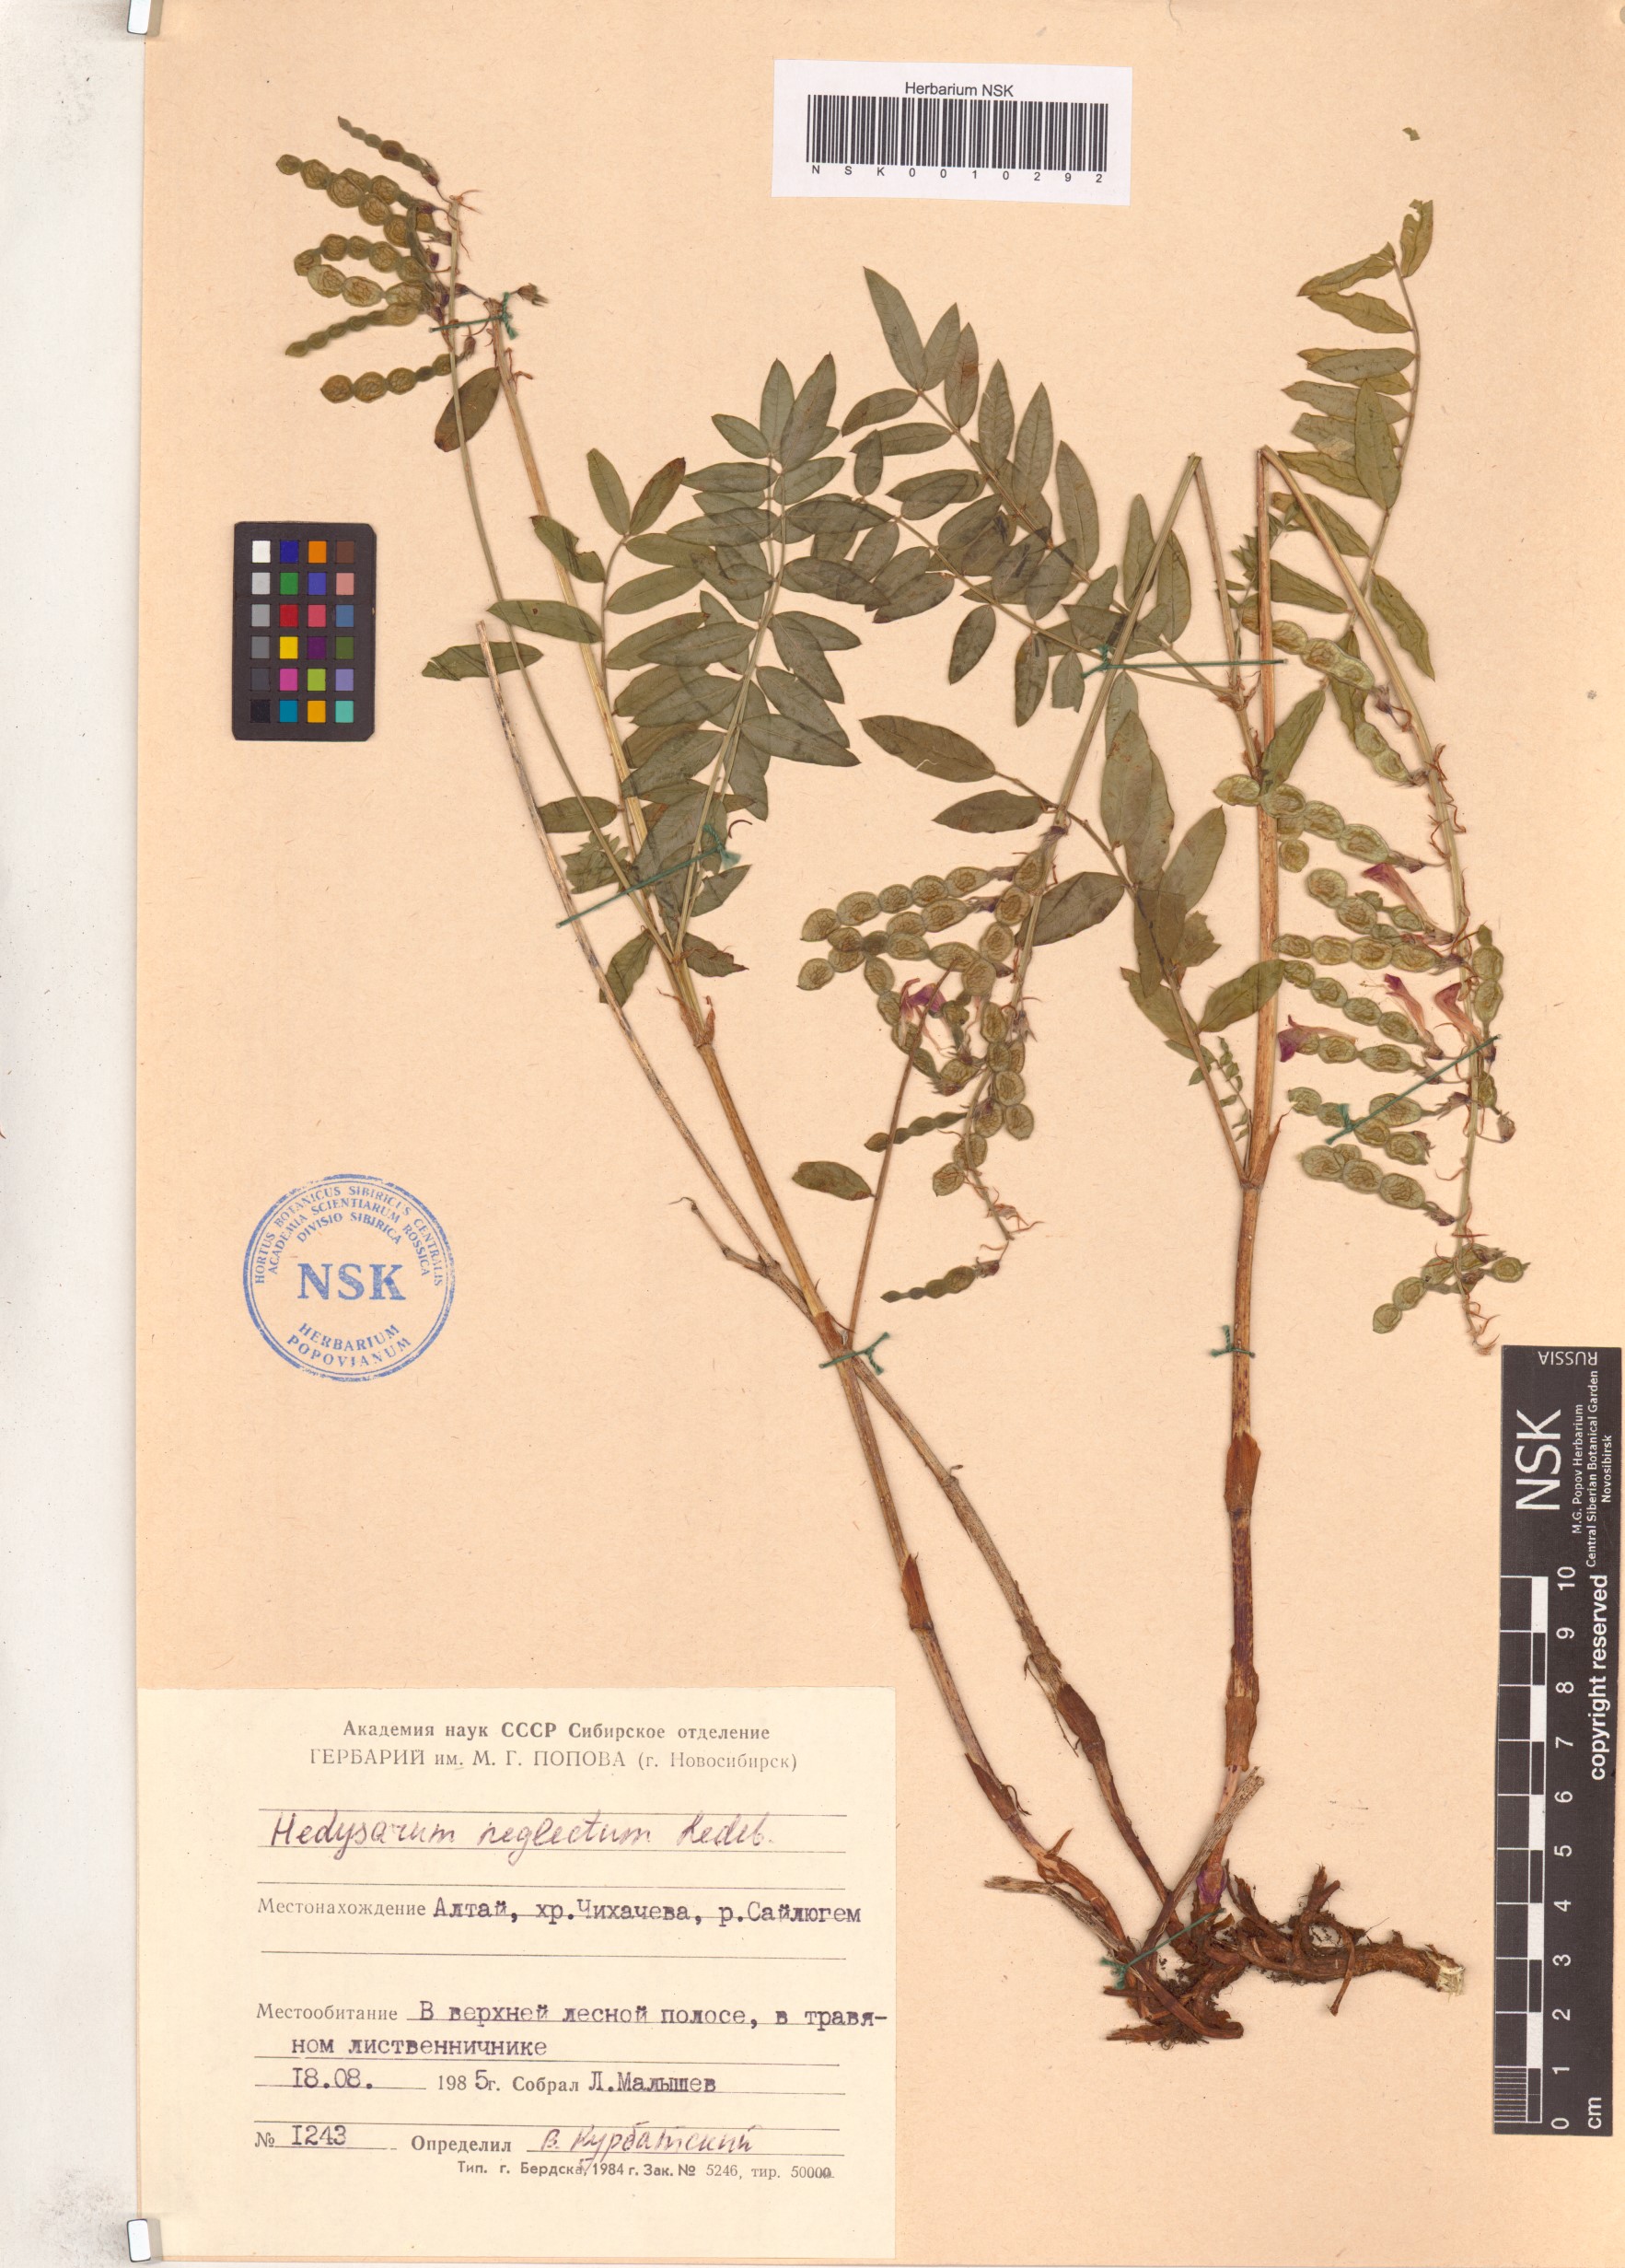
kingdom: Plantae
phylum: Tracheophyta
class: Magnoliopsida
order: Fabales
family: Fabaceae
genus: Hedysarum
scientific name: Hedysarum neglectum
